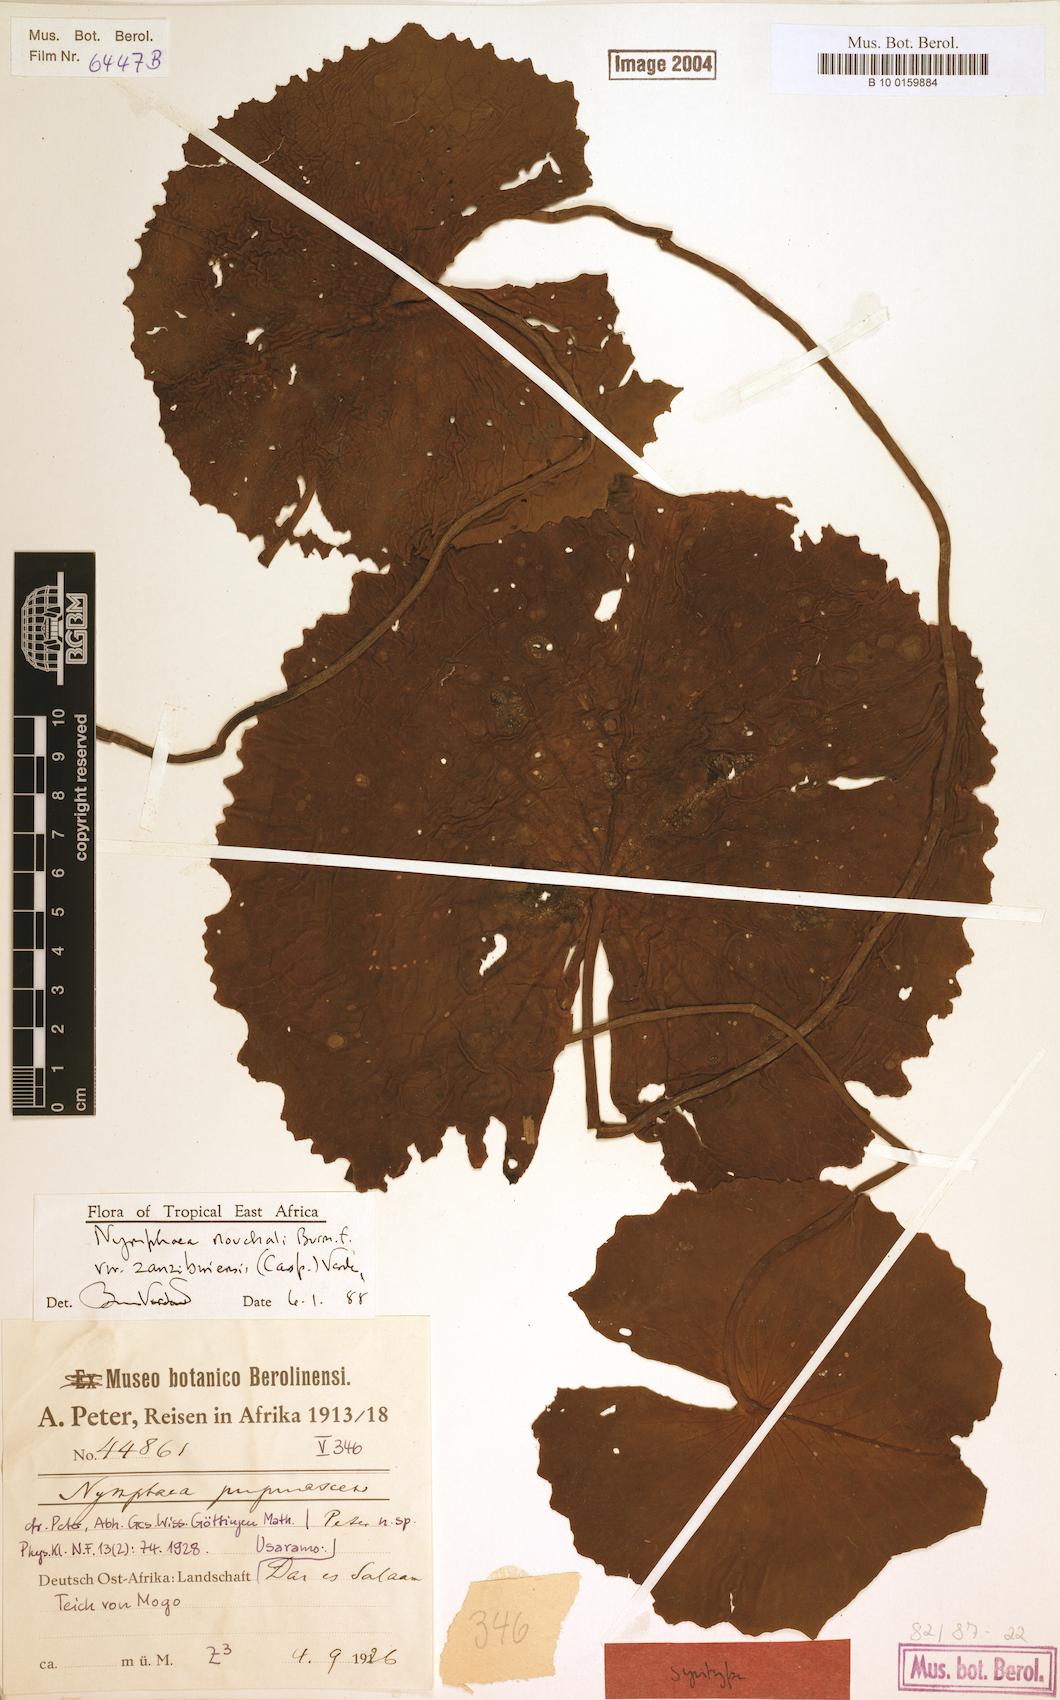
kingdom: Plantae
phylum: Tracheophyta
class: Magnoliopsida
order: Nymphaeales
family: Nymphaeaceae
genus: Nymphaea
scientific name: Nymphaea nouchali
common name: Blue lotus
